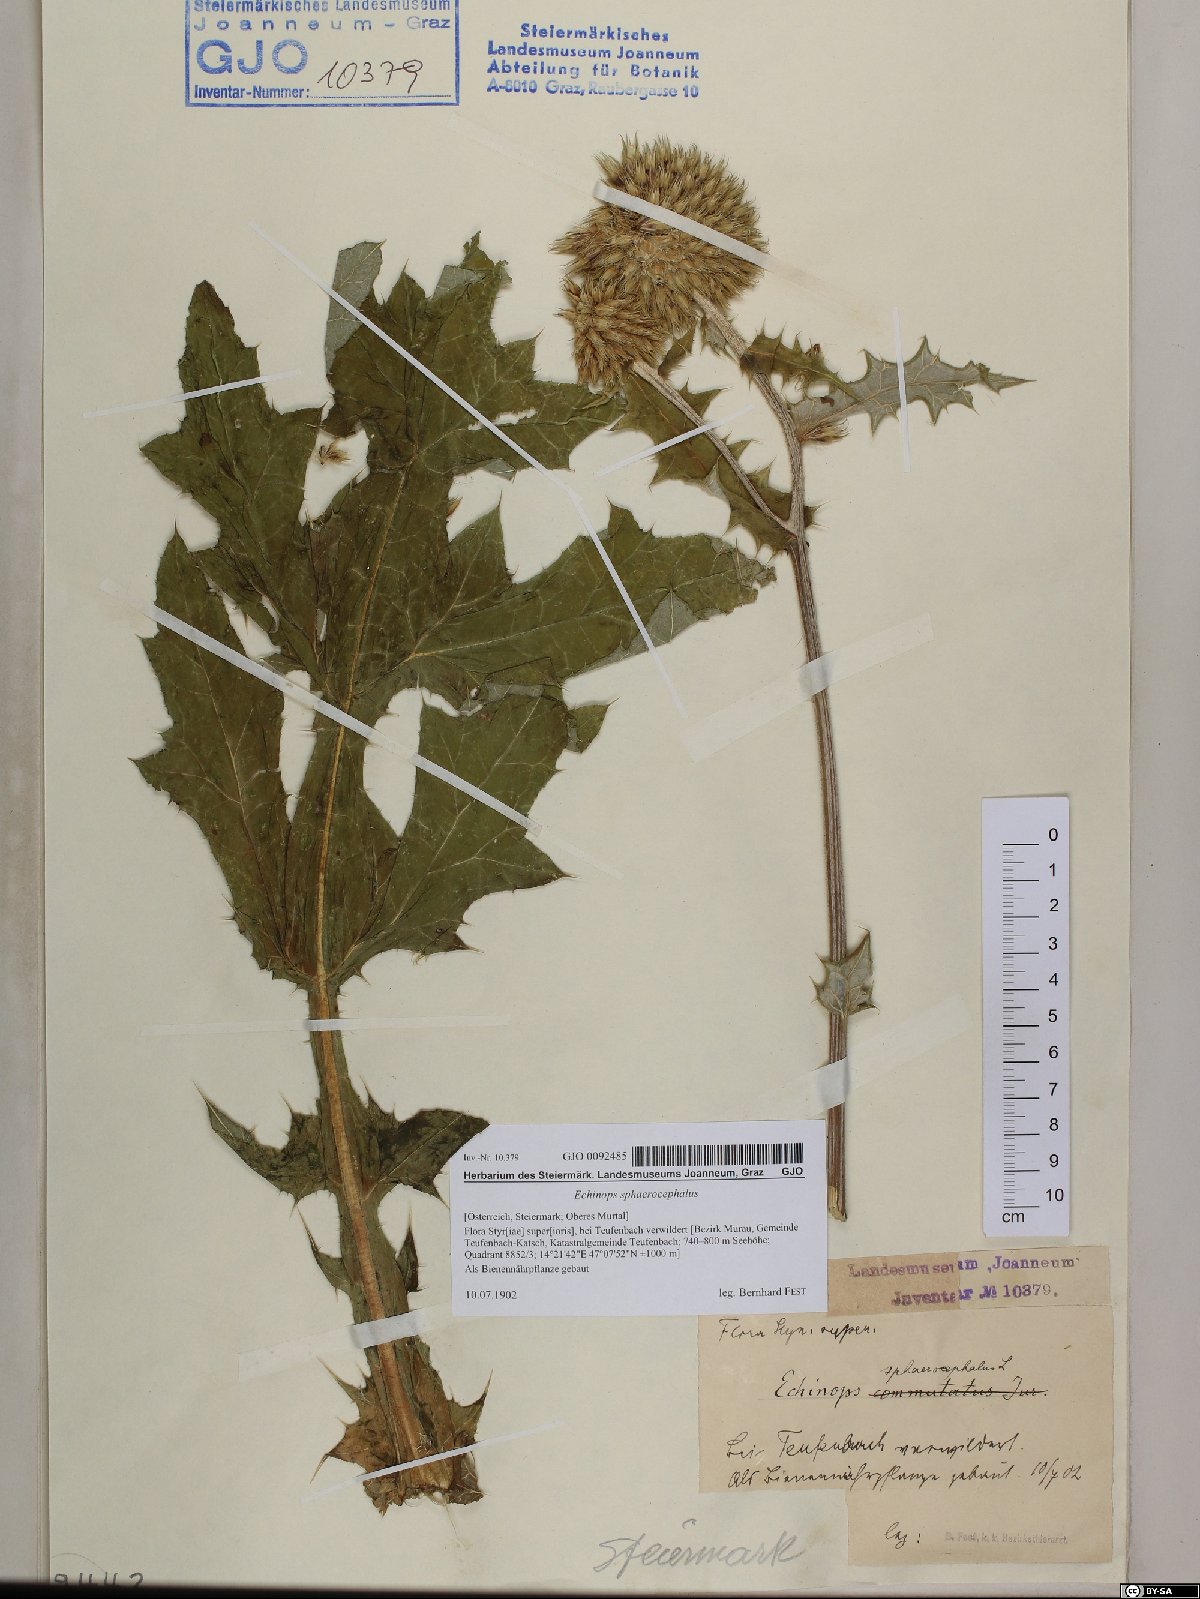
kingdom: Plantae
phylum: Tracheophyta
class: Magnoliopsida
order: Asterales
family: Asteraceae
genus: Echinops
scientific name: Echinops sphaerocephalus
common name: Glandular globe-thistle
